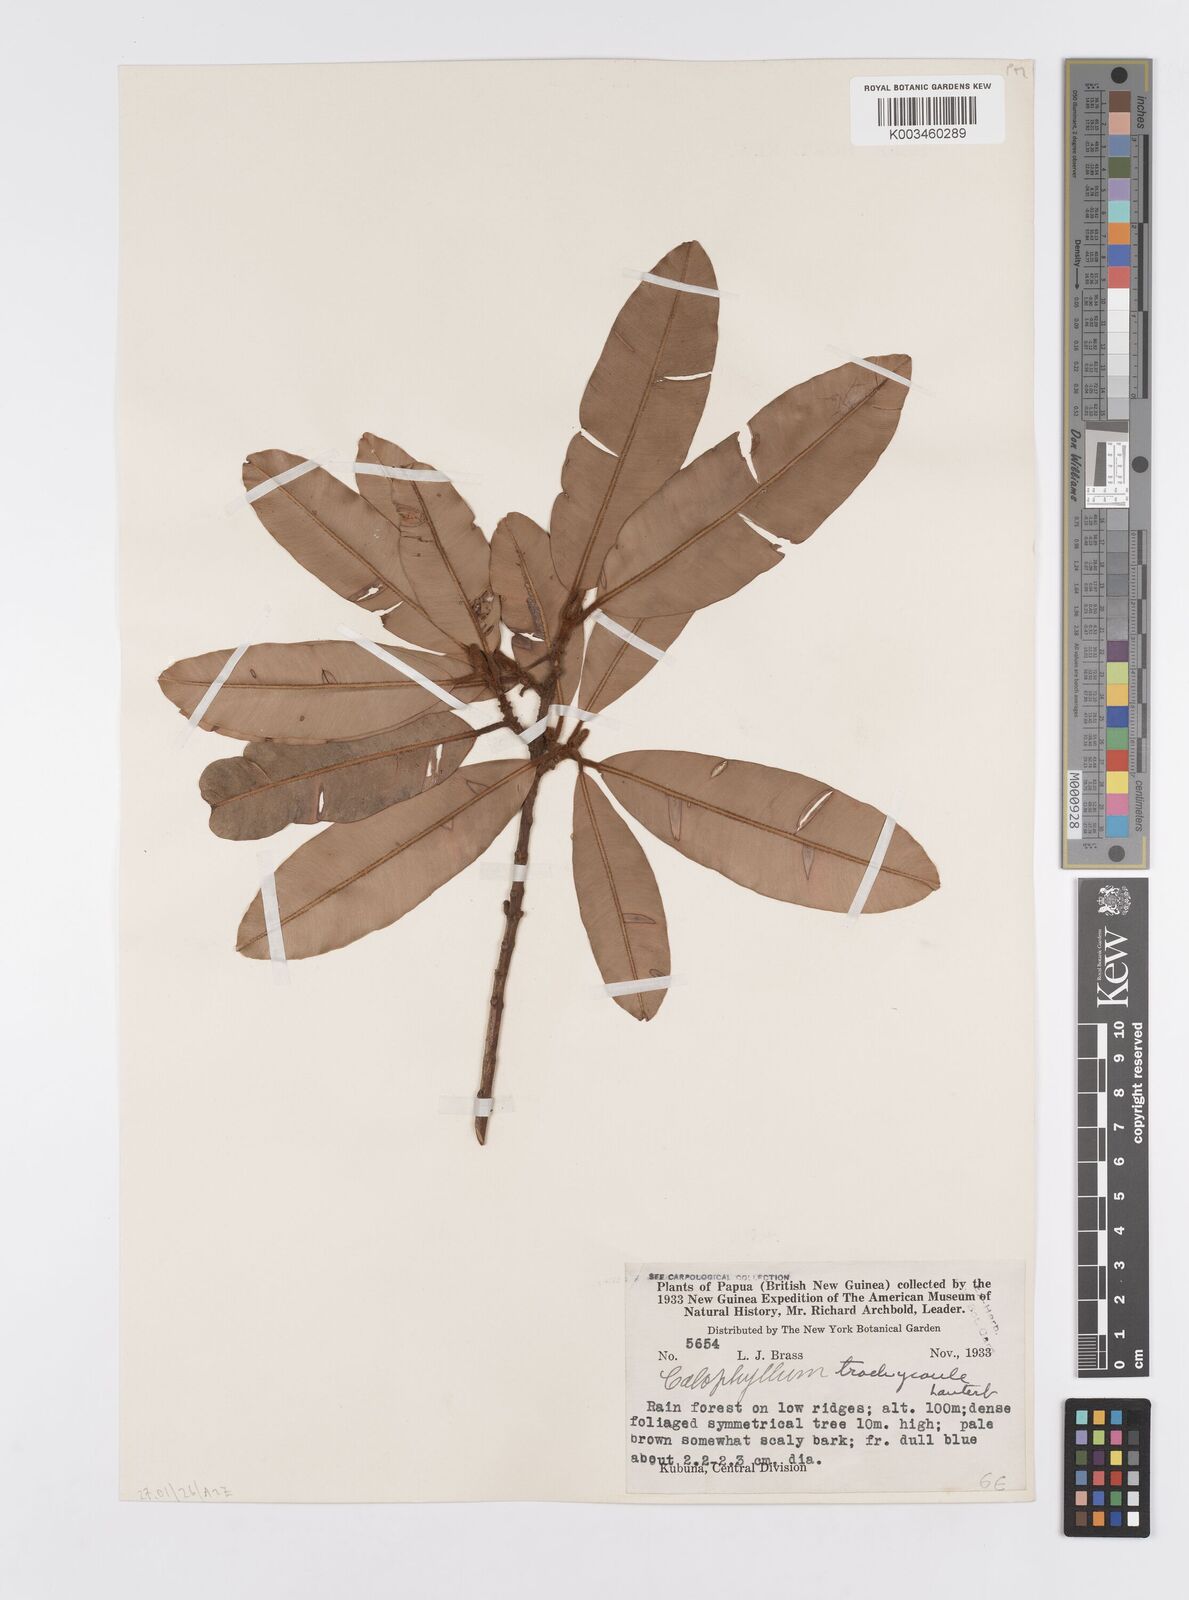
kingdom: Plantae
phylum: Tracheophyta
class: Magnoliopsida
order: Malpighiales
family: Calophyllaceae
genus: Calophyllum
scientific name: Calophyllum trachycaule
